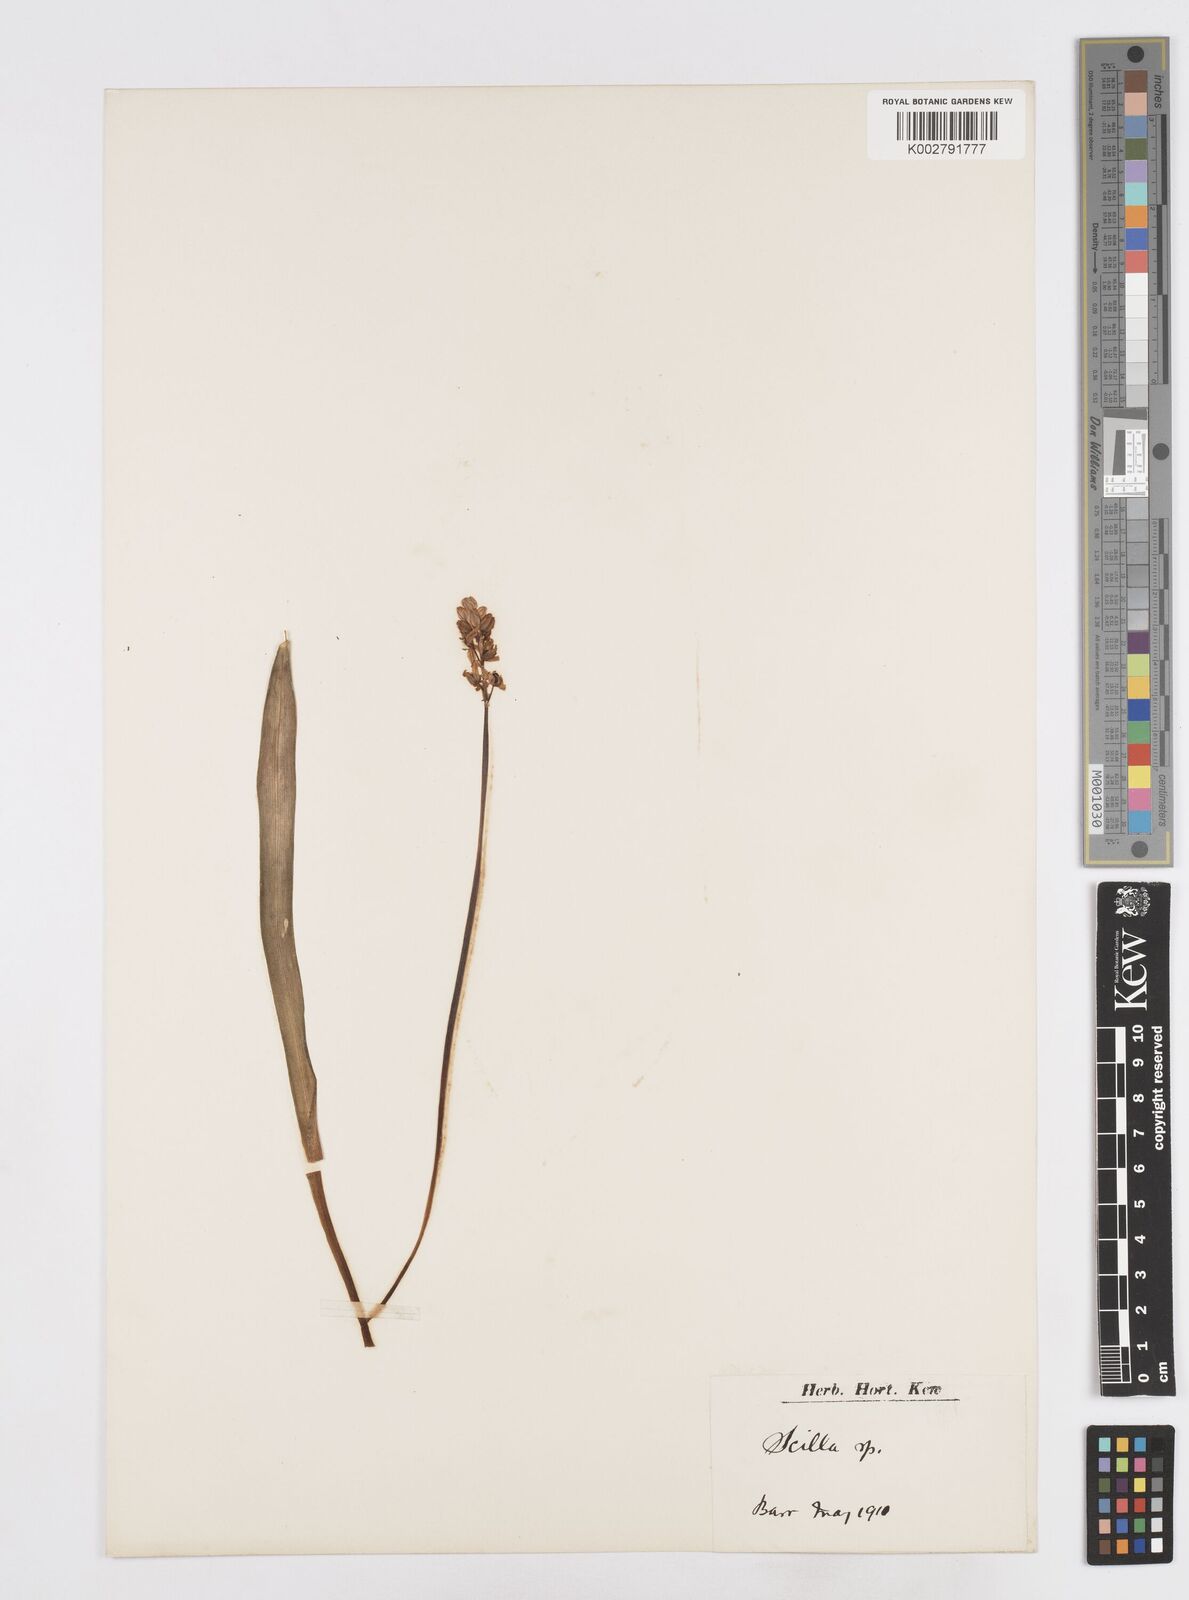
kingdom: Plantae
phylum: Tracheophyta
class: Liliopsida
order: Asparagales
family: Asparagaceae
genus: Scilla
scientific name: Scilla
